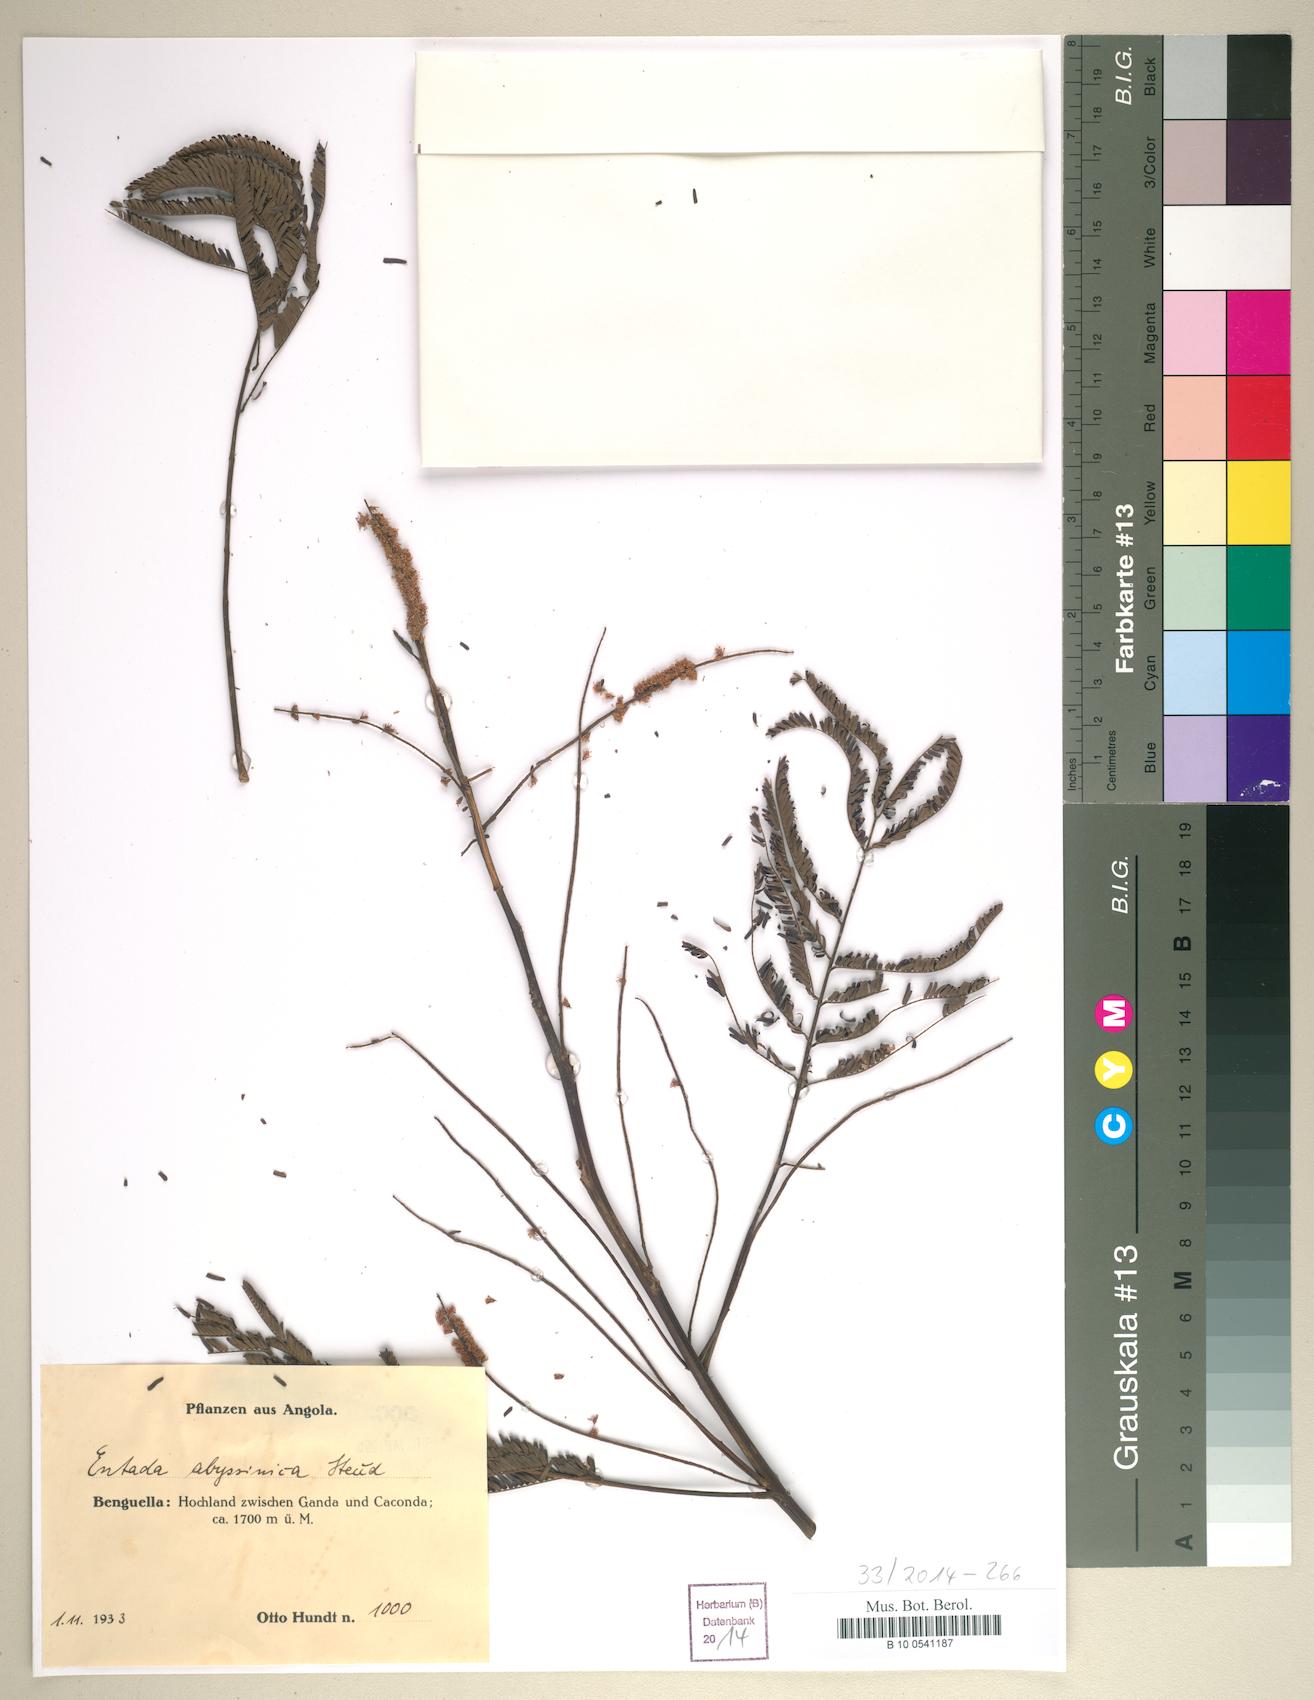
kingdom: Plantae
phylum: Tracheophyta
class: Magnoliopsida
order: Fabales
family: Fabaceae
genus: Entada
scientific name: Entada abyssinica
